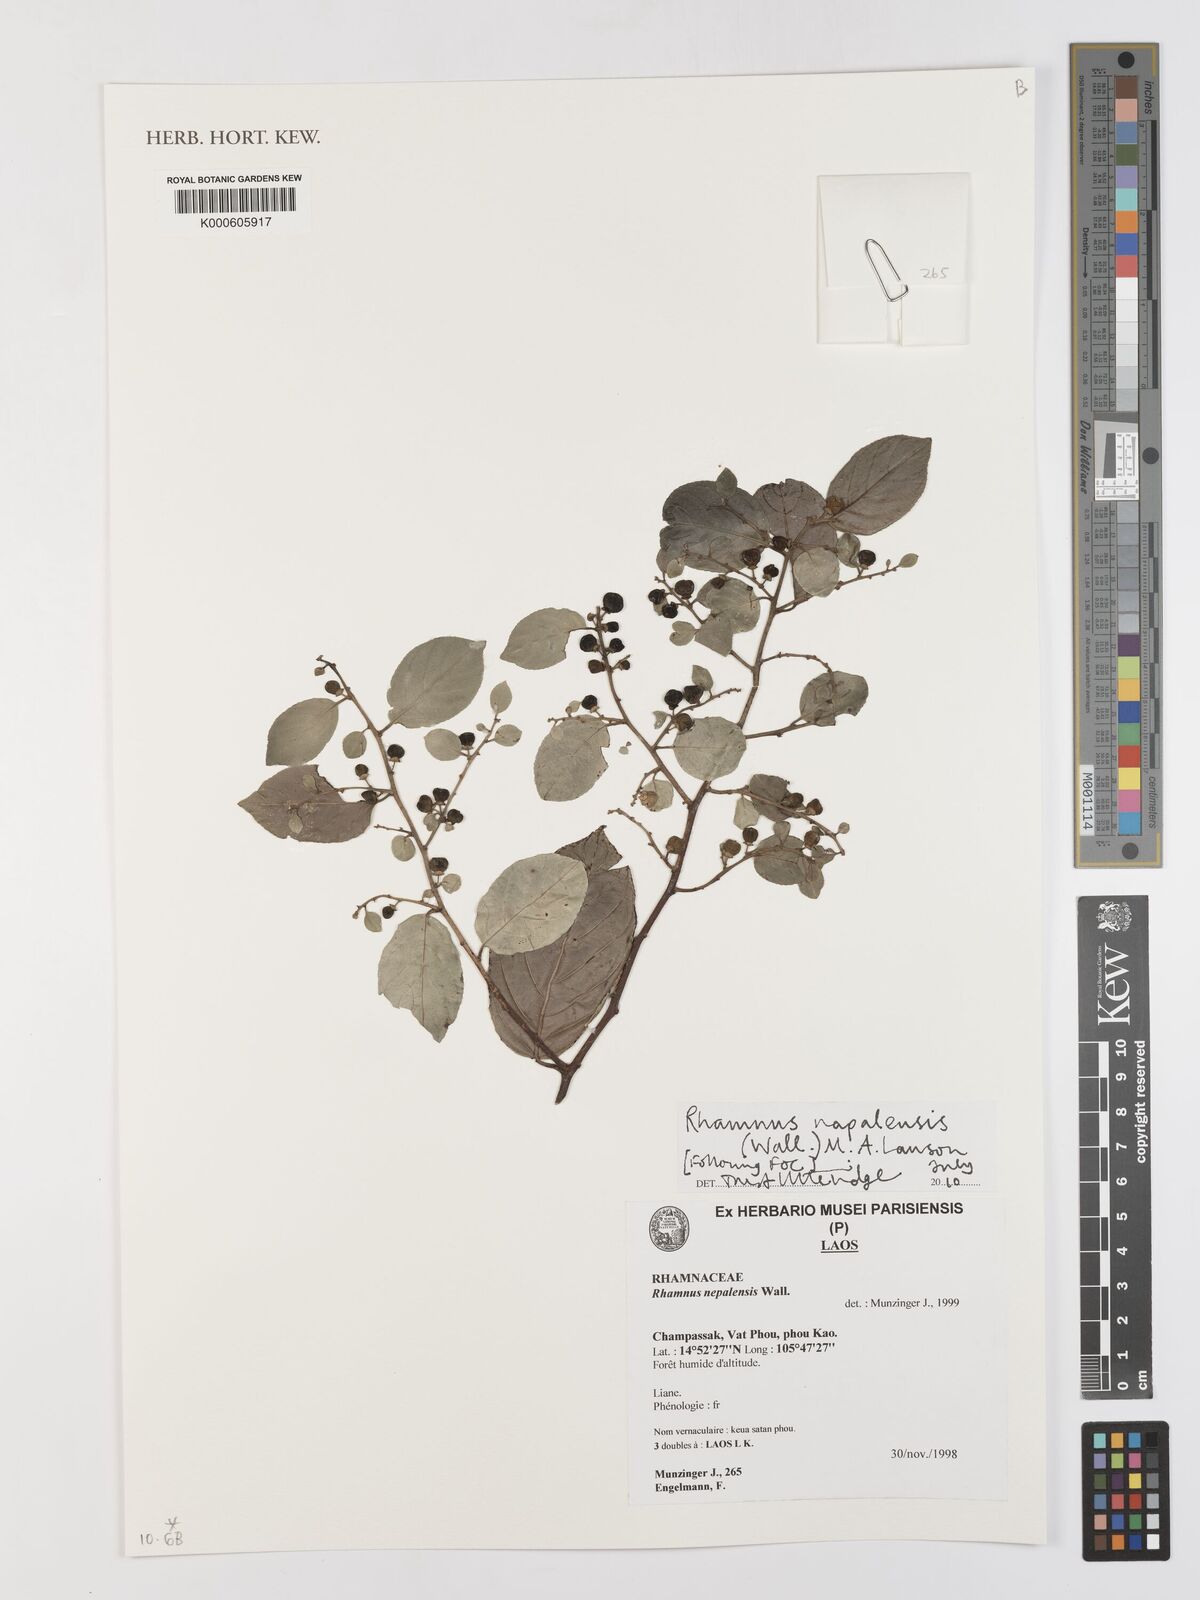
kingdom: Plantae
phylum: Tracheophyta
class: Magnoliopsida
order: Rosales
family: Rhamnaceae
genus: Rhamnus
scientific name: Rhamnus napalensis
